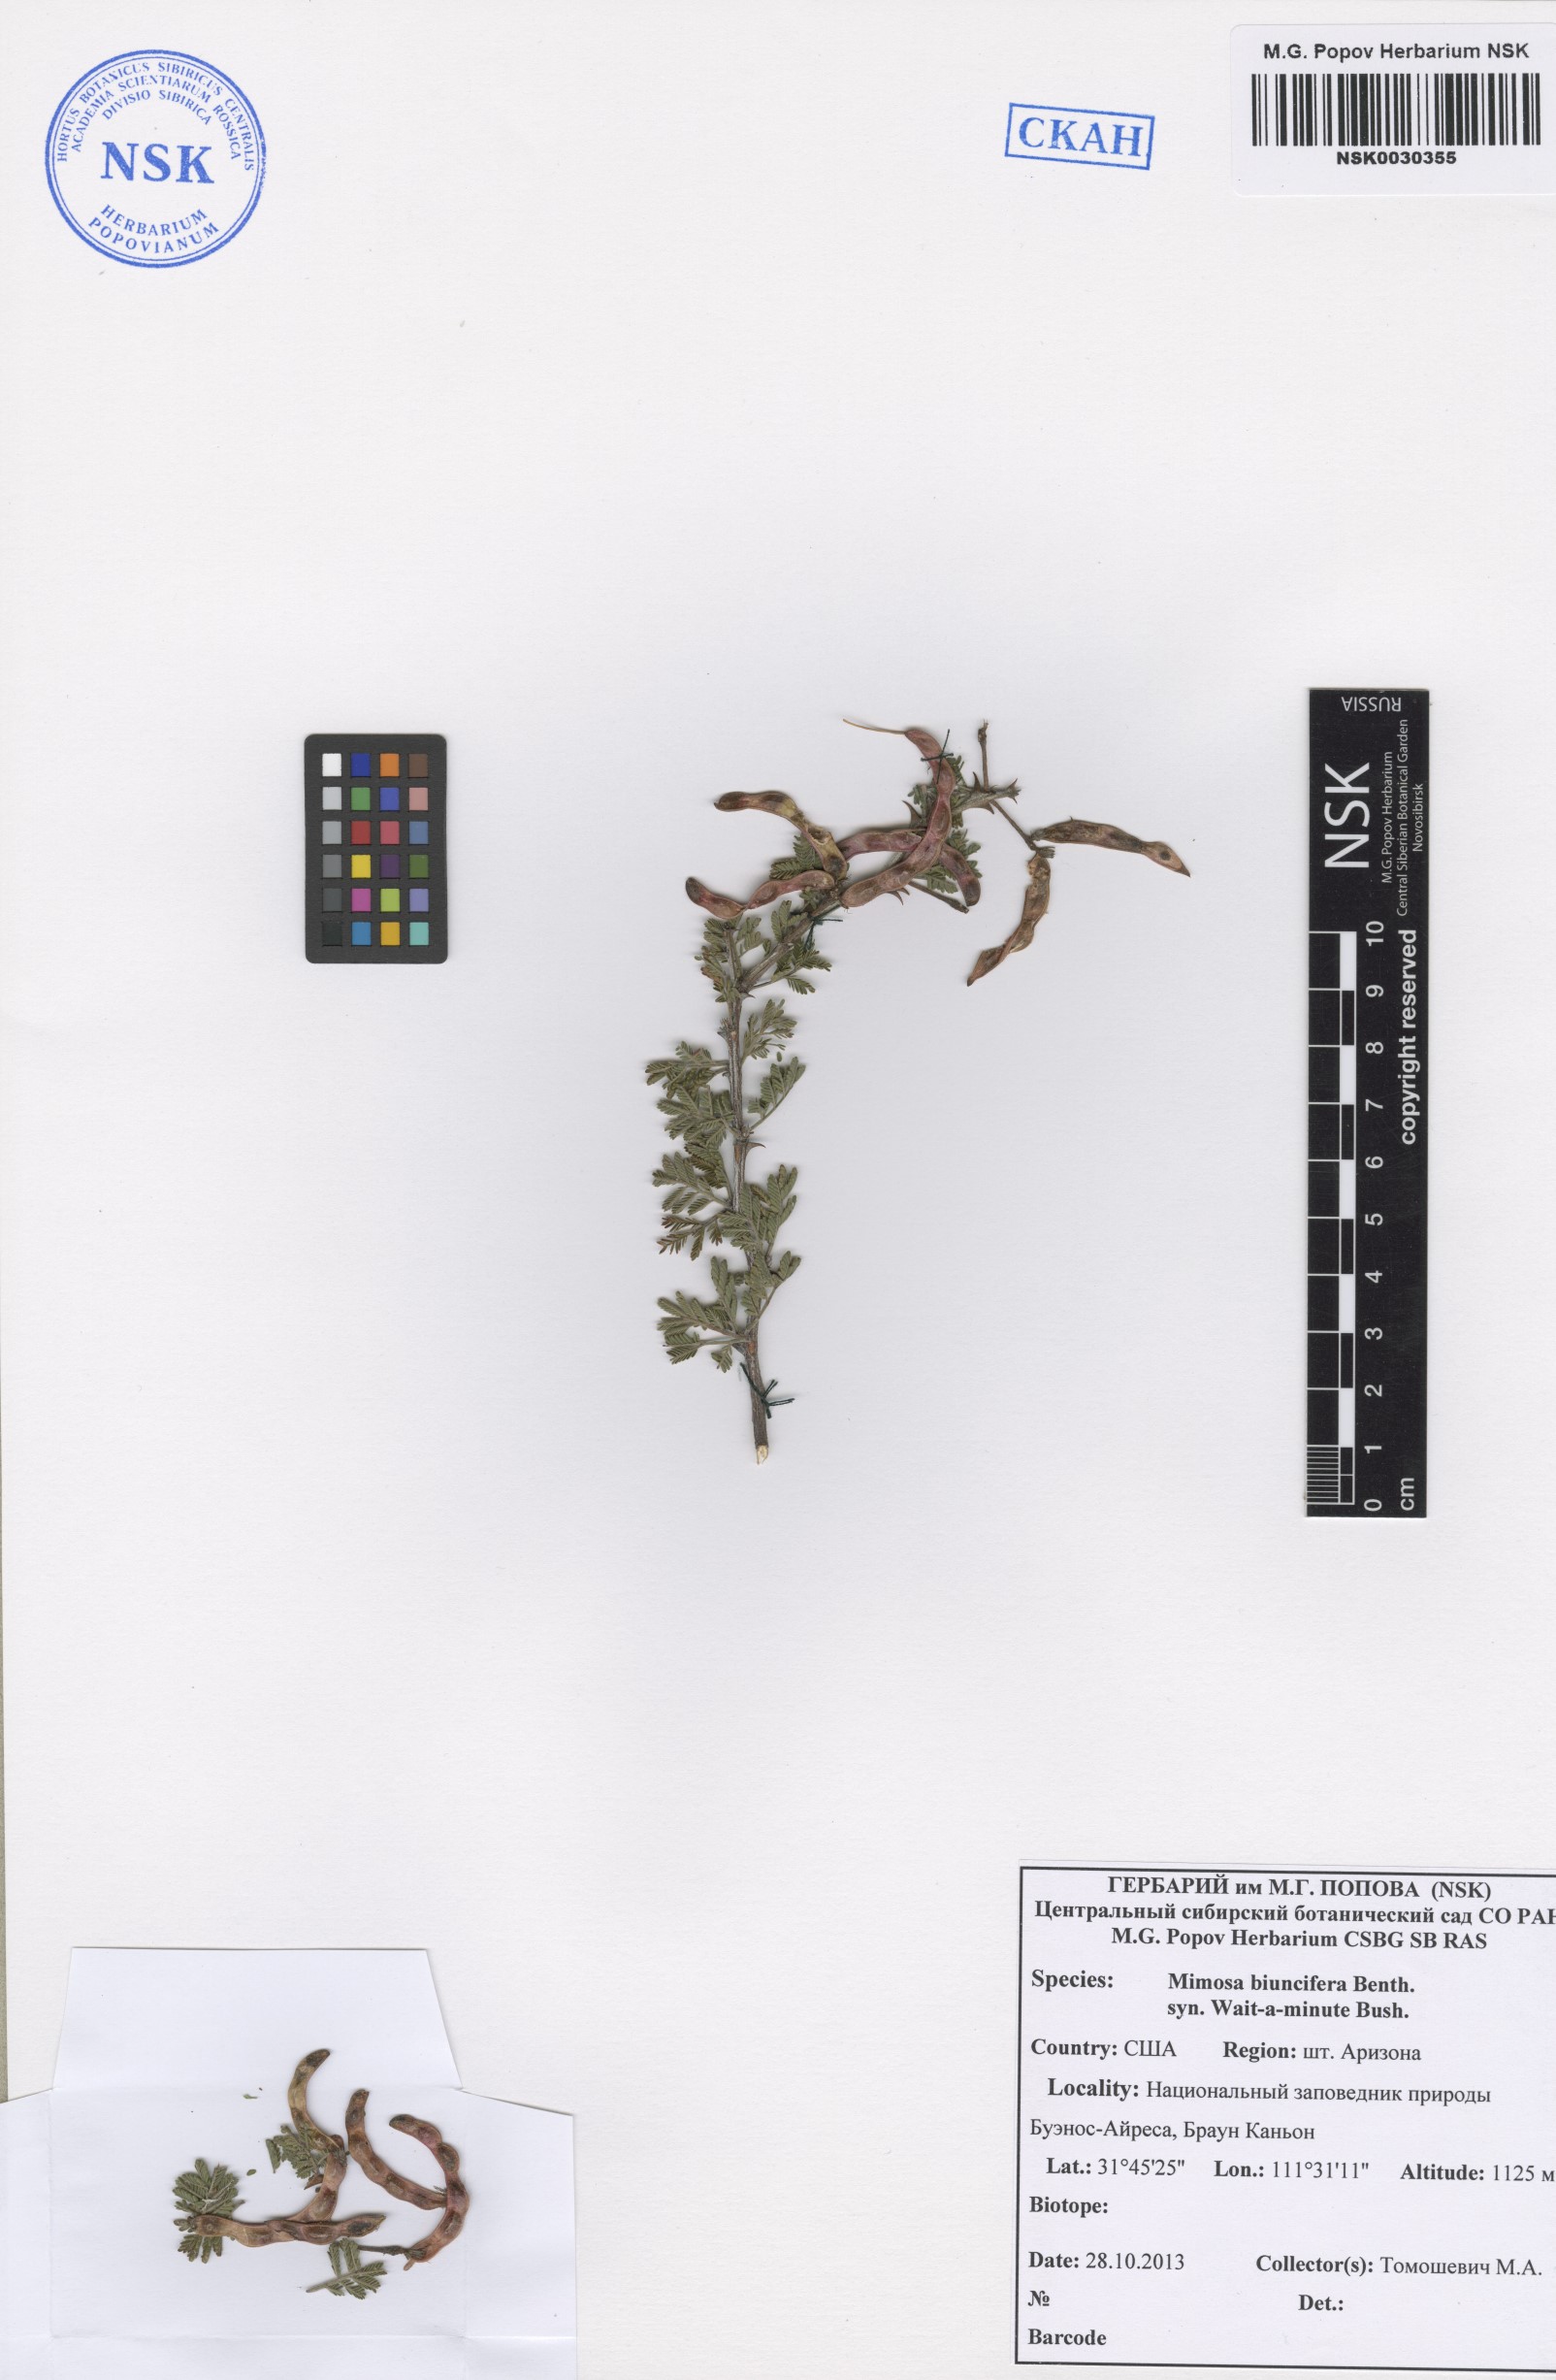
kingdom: Plantae
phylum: Tracheophyta
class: Magnoliopsida
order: Fabales
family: Fabaceae
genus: Mimosa
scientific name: Mimosa biuncifera
